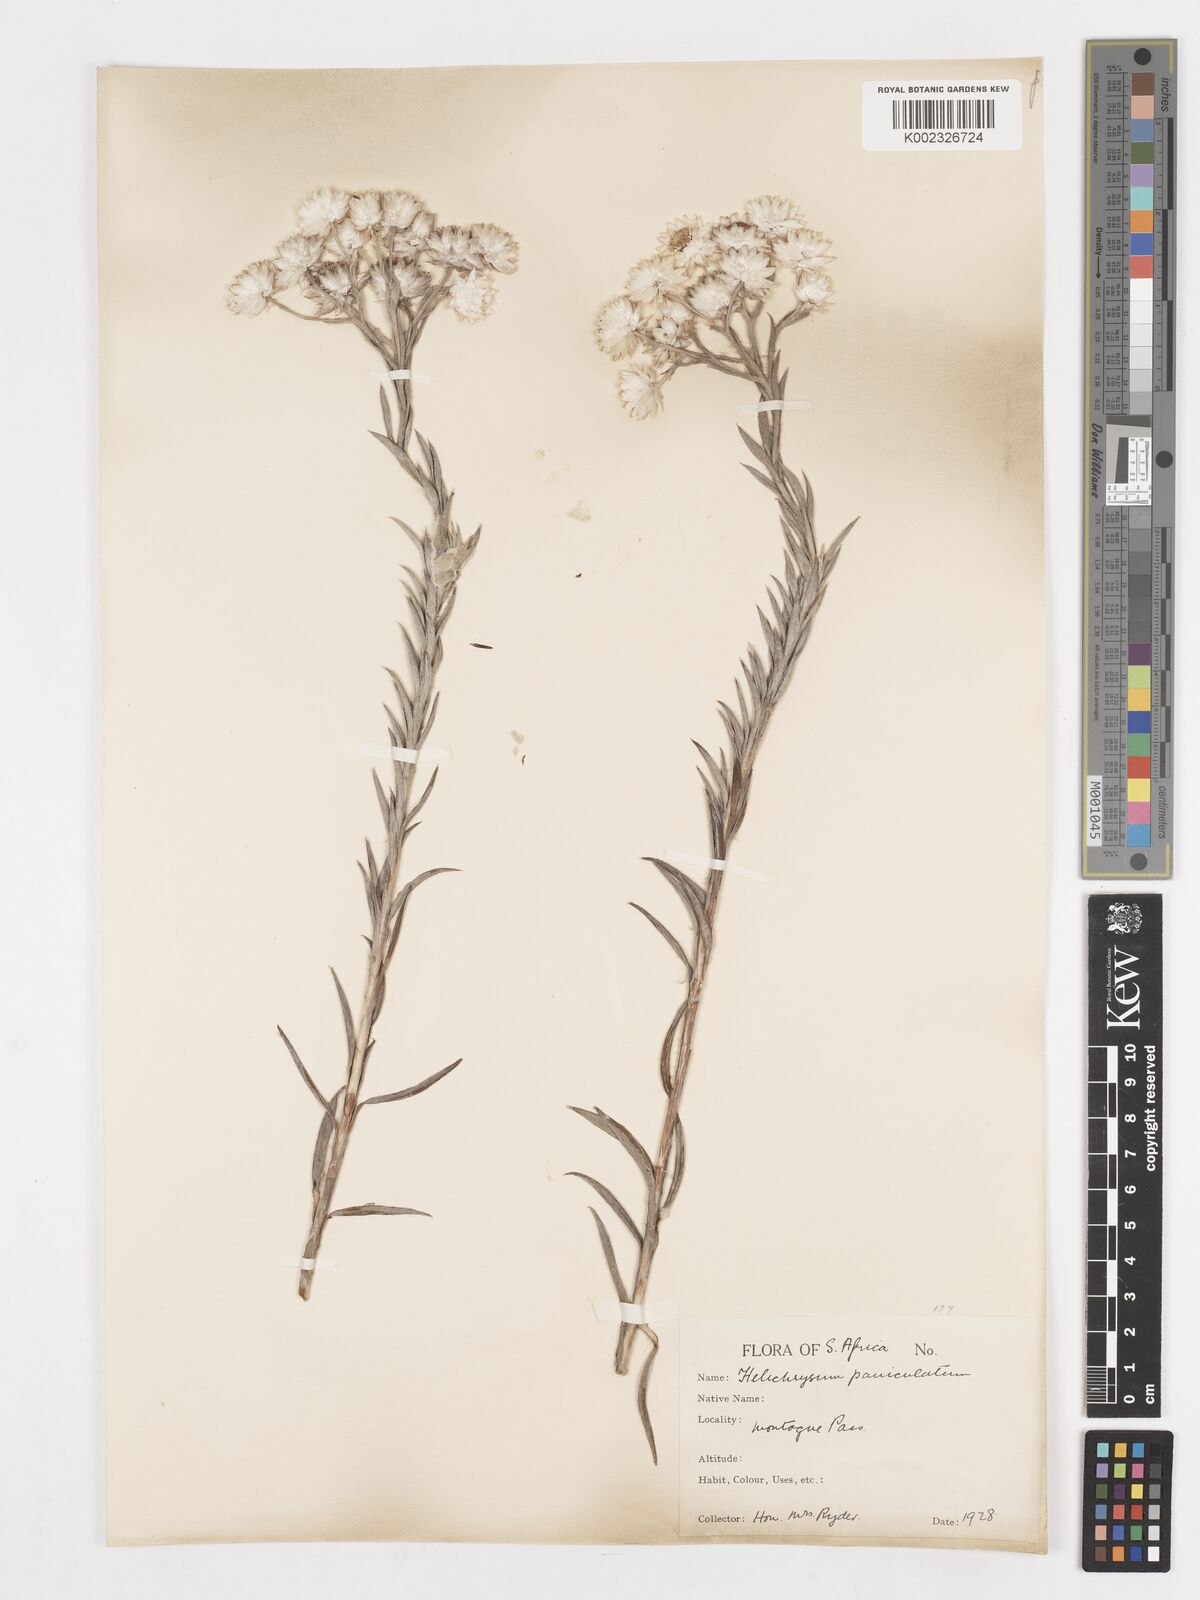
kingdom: Plantae
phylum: Tracheophyta
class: Magnoliopsida
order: Asterales
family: Asteraceae
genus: Achyranthemum
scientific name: Achyranthemum paniculatum
